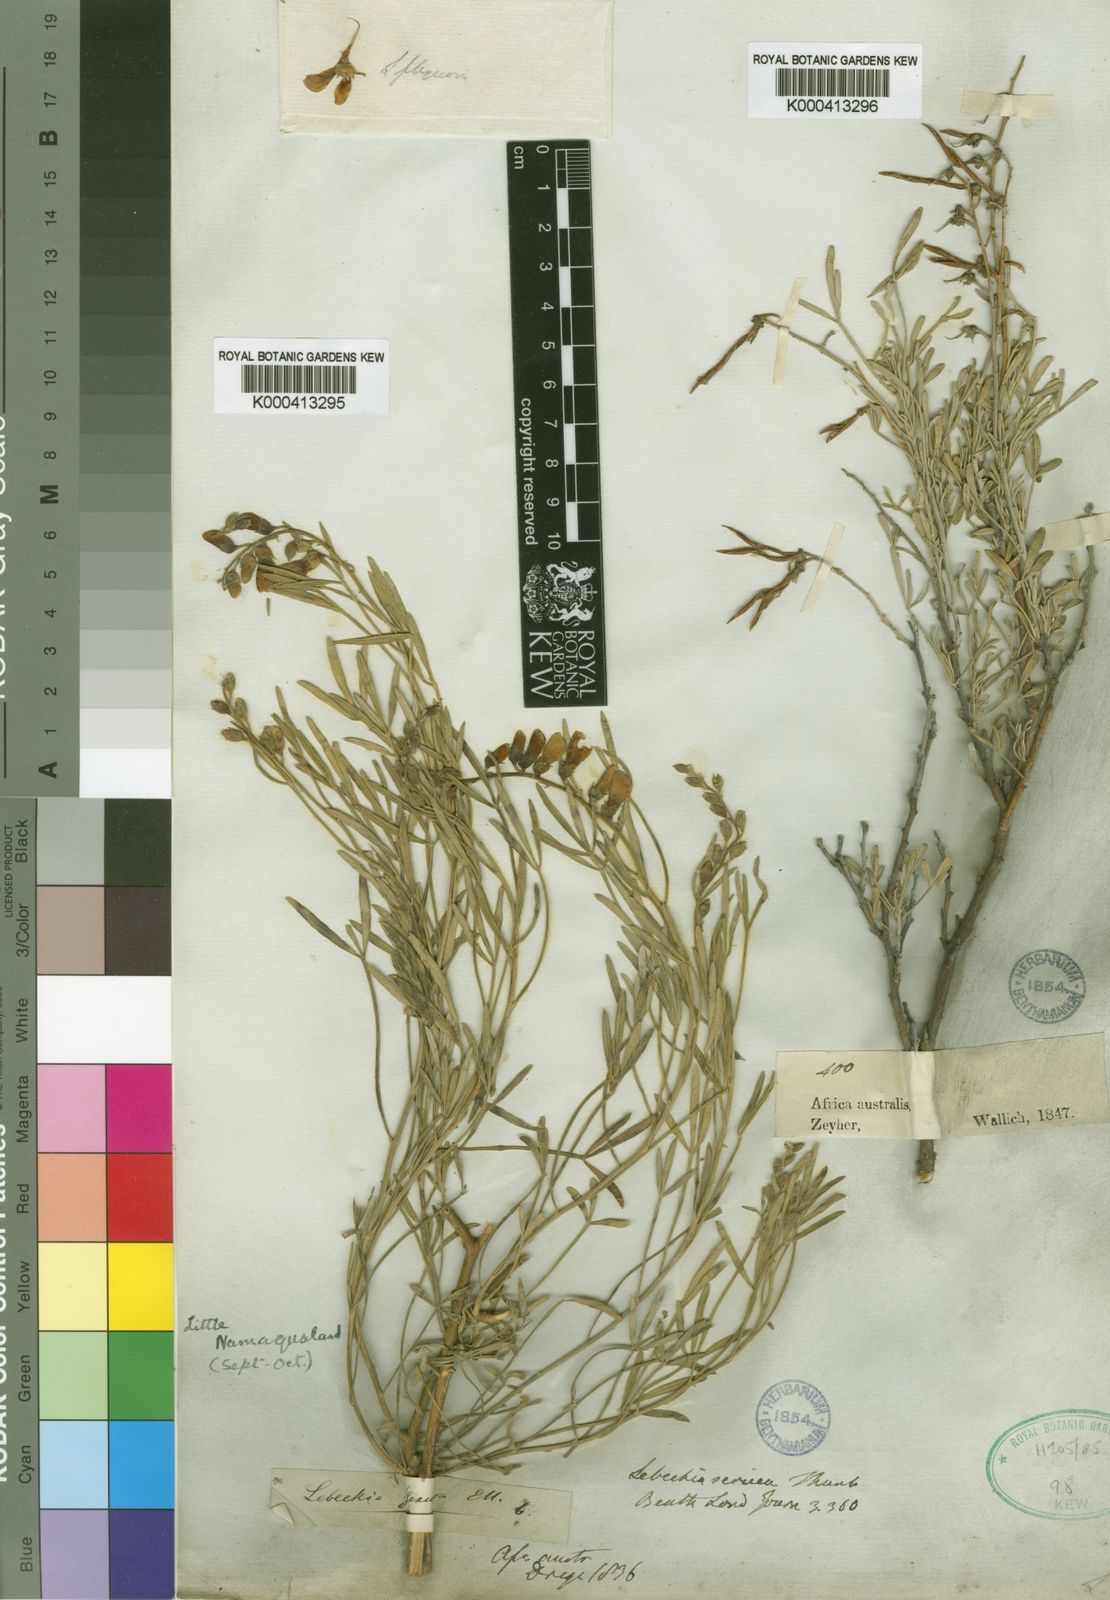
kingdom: Plantae
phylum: Tracheophyta
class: Magnoliopsida
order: Fabales
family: Fabaceae
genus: Calobota
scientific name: Calobota sericea
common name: Silver-pea
